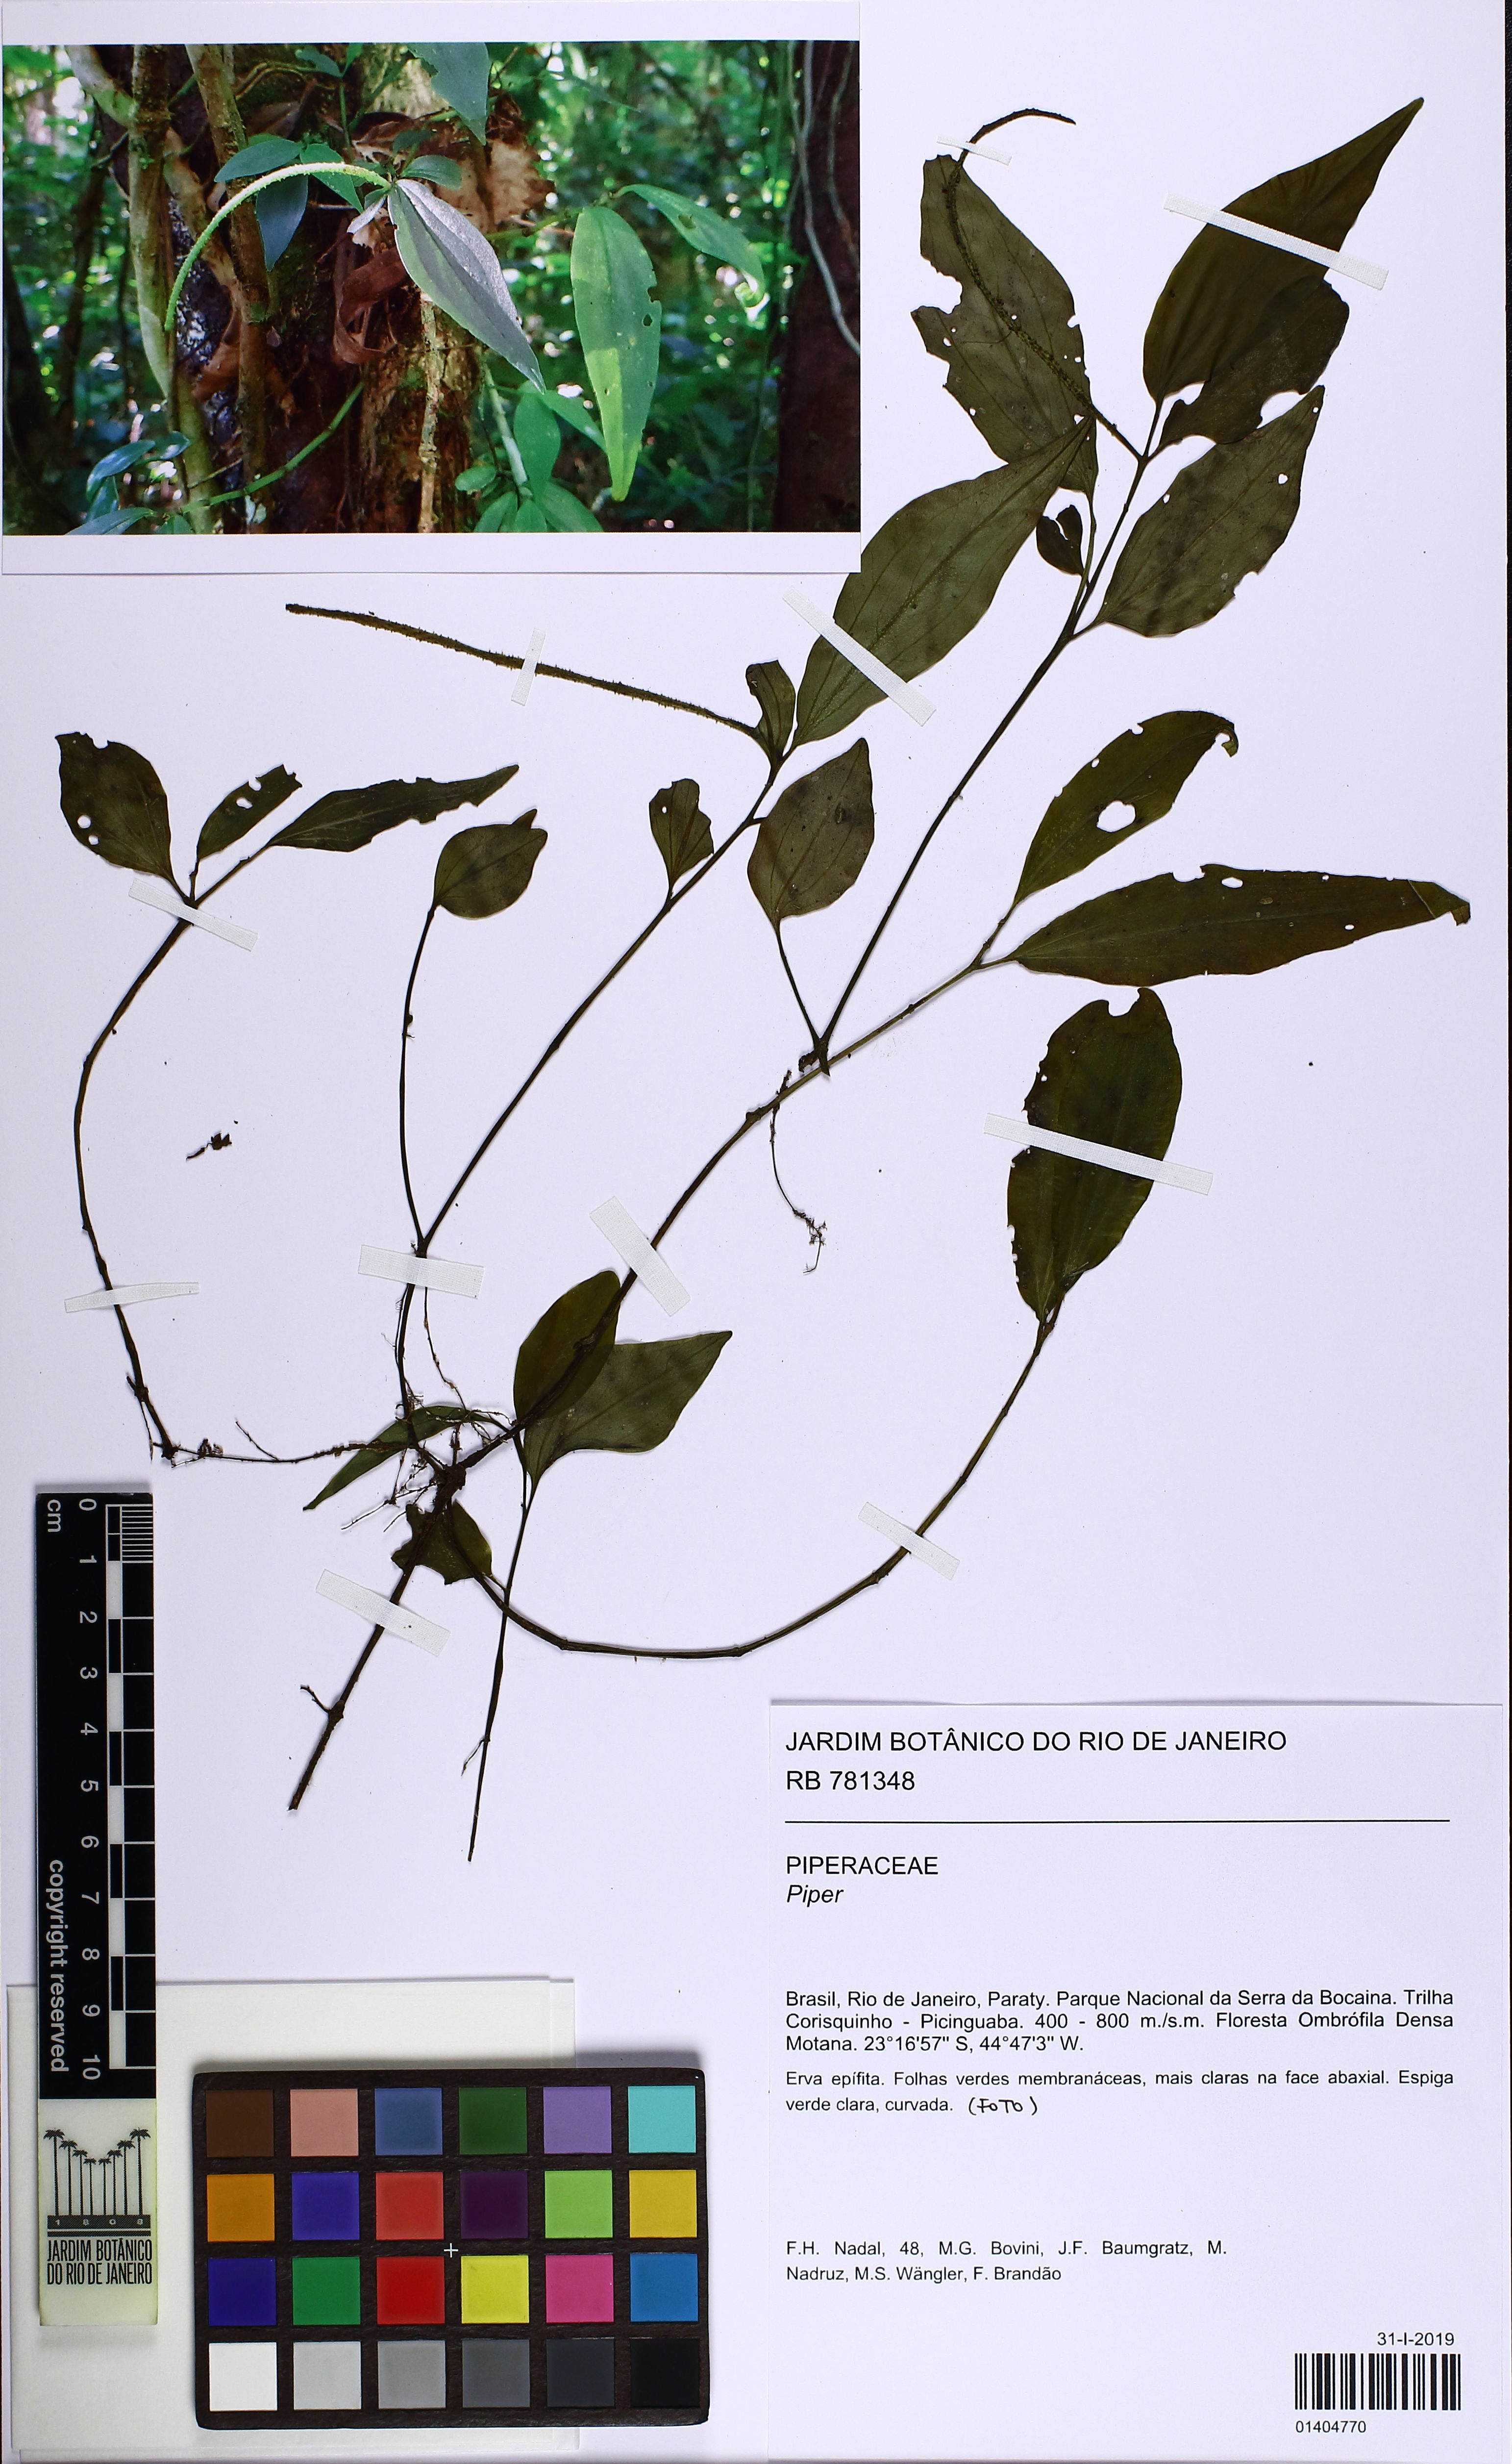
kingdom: Plantae
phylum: Tracheophyta
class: Magnoliopsida
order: Piperales
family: Piperaceae
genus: Piper
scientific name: Piper
